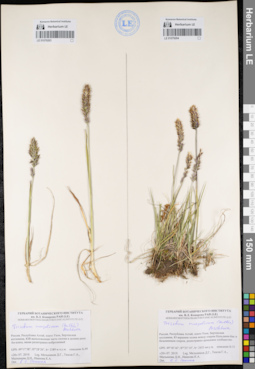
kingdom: Plantae
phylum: Tracheophyta
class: Liliopsida
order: Poales
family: Poaceae
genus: Koeleria
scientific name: Koeleria spicata
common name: Mountain trisetum
